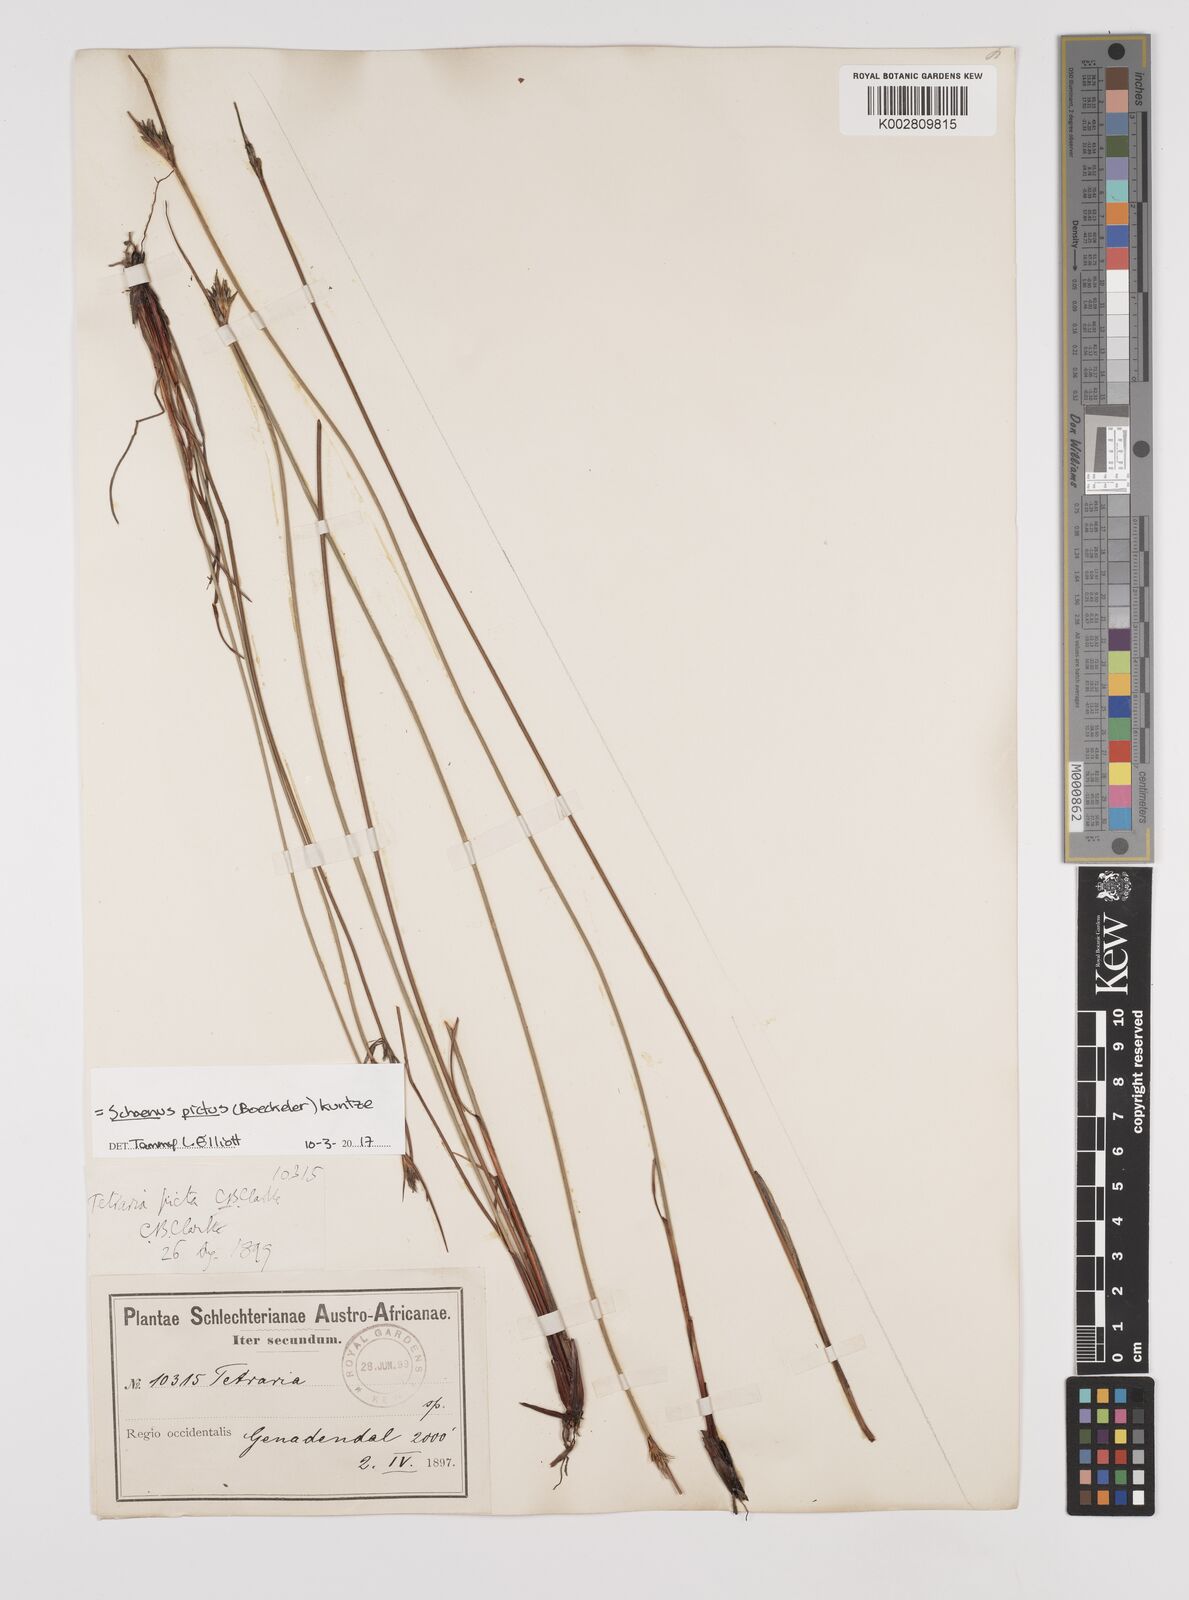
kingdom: Plantae
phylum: Tracheophyta
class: Liliopsida
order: Poales
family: Cyperaceae
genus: Schoenus
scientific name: Schoenus pictus
